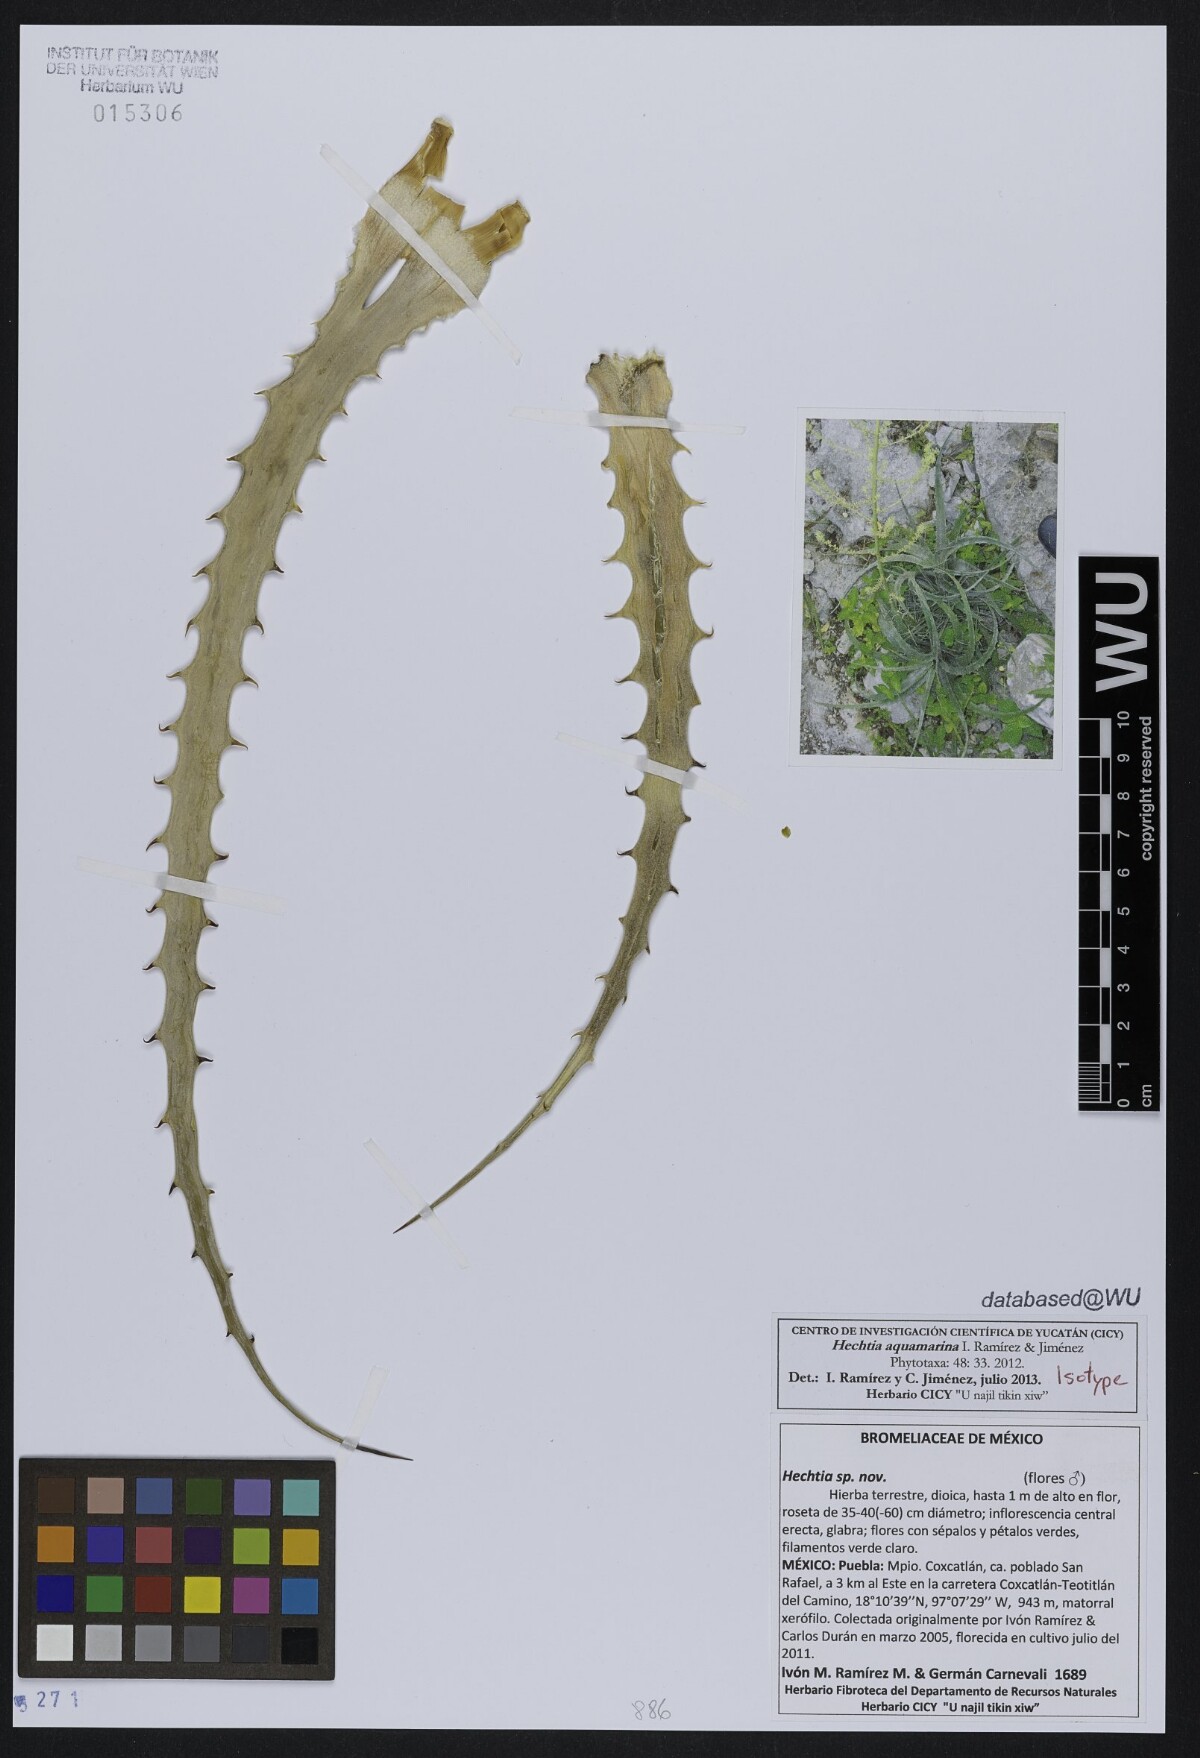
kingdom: Plantae
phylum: Tracheophyta
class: Liliopsida
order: Poales
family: Bromeliaceae
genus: Hechtia
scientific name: Hechtia aquamarina
